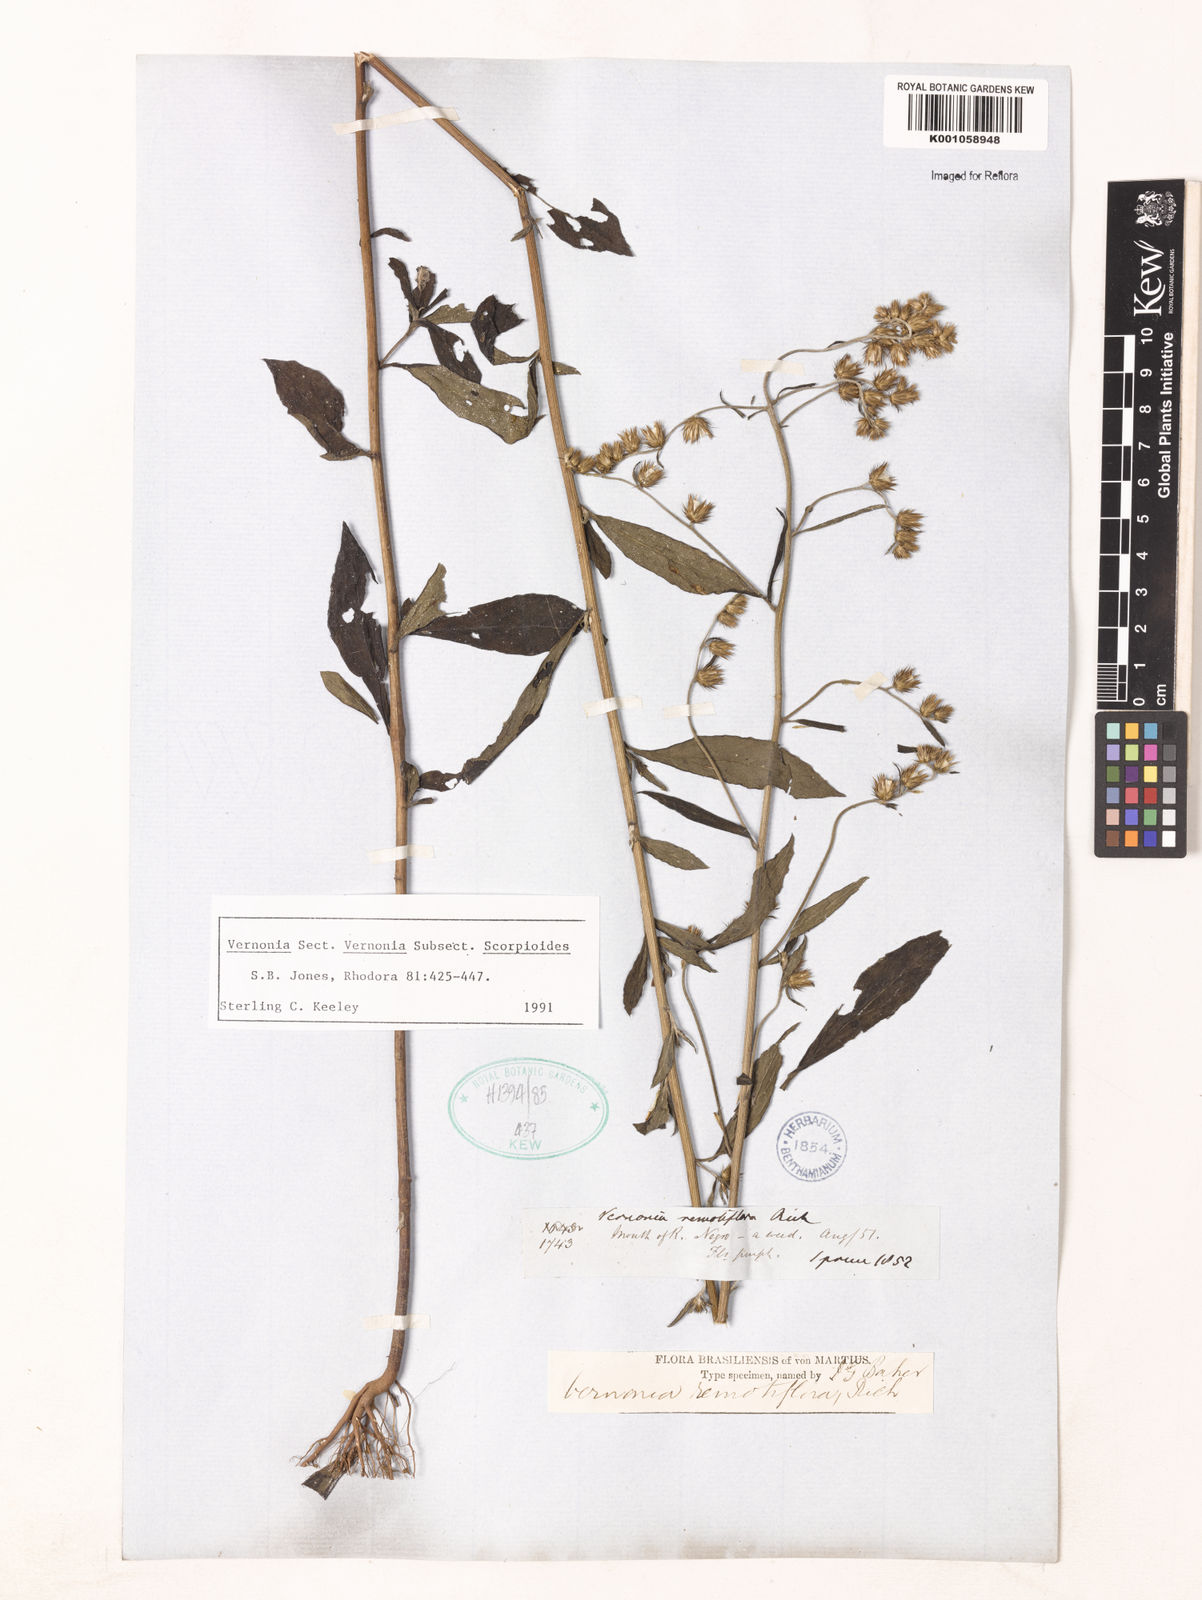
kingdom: Plantae
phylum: Tracheophyta
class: Magnoliopsida
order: Asterales
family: Asteraceae
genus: Lepidaploa
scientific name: Lepidaploa remotiflora
